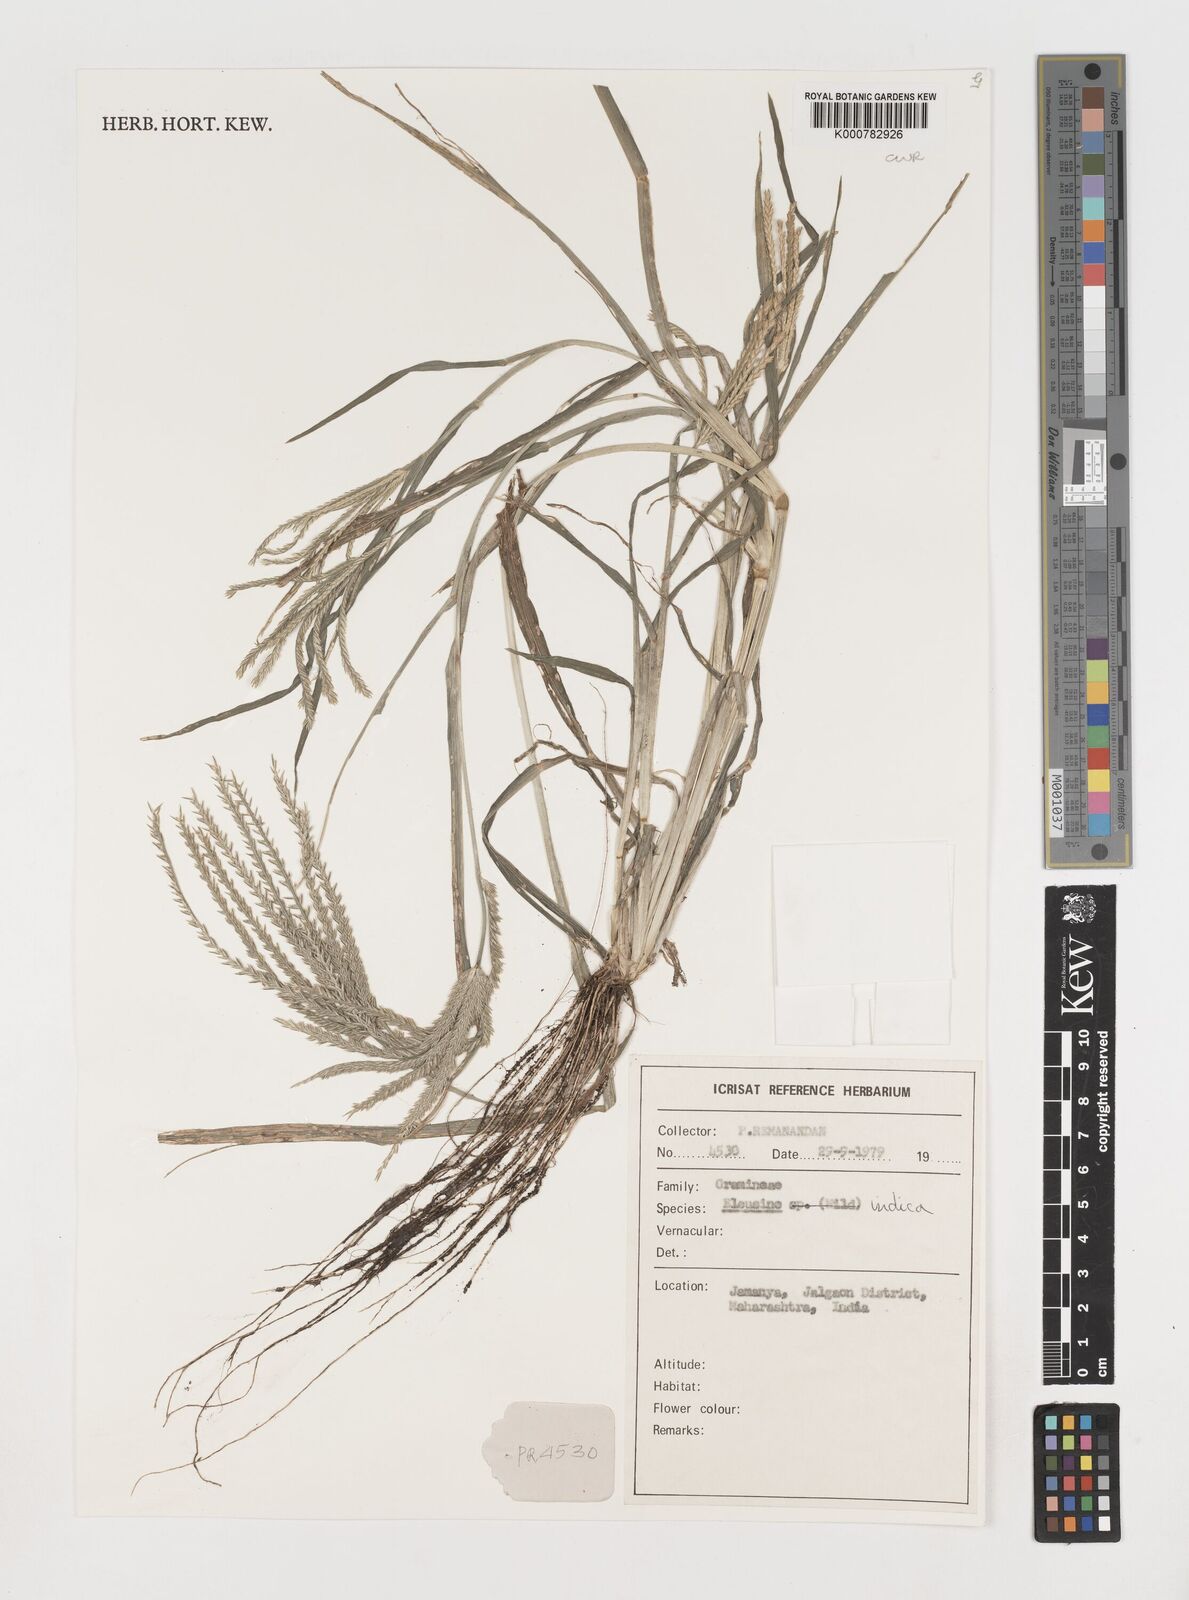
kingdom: Plantae
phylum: Tracheophyta
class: Liliopsida
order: Poales
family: Poaceae
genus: Eleusine
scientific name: Eleusine indica
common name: Yard-grass
